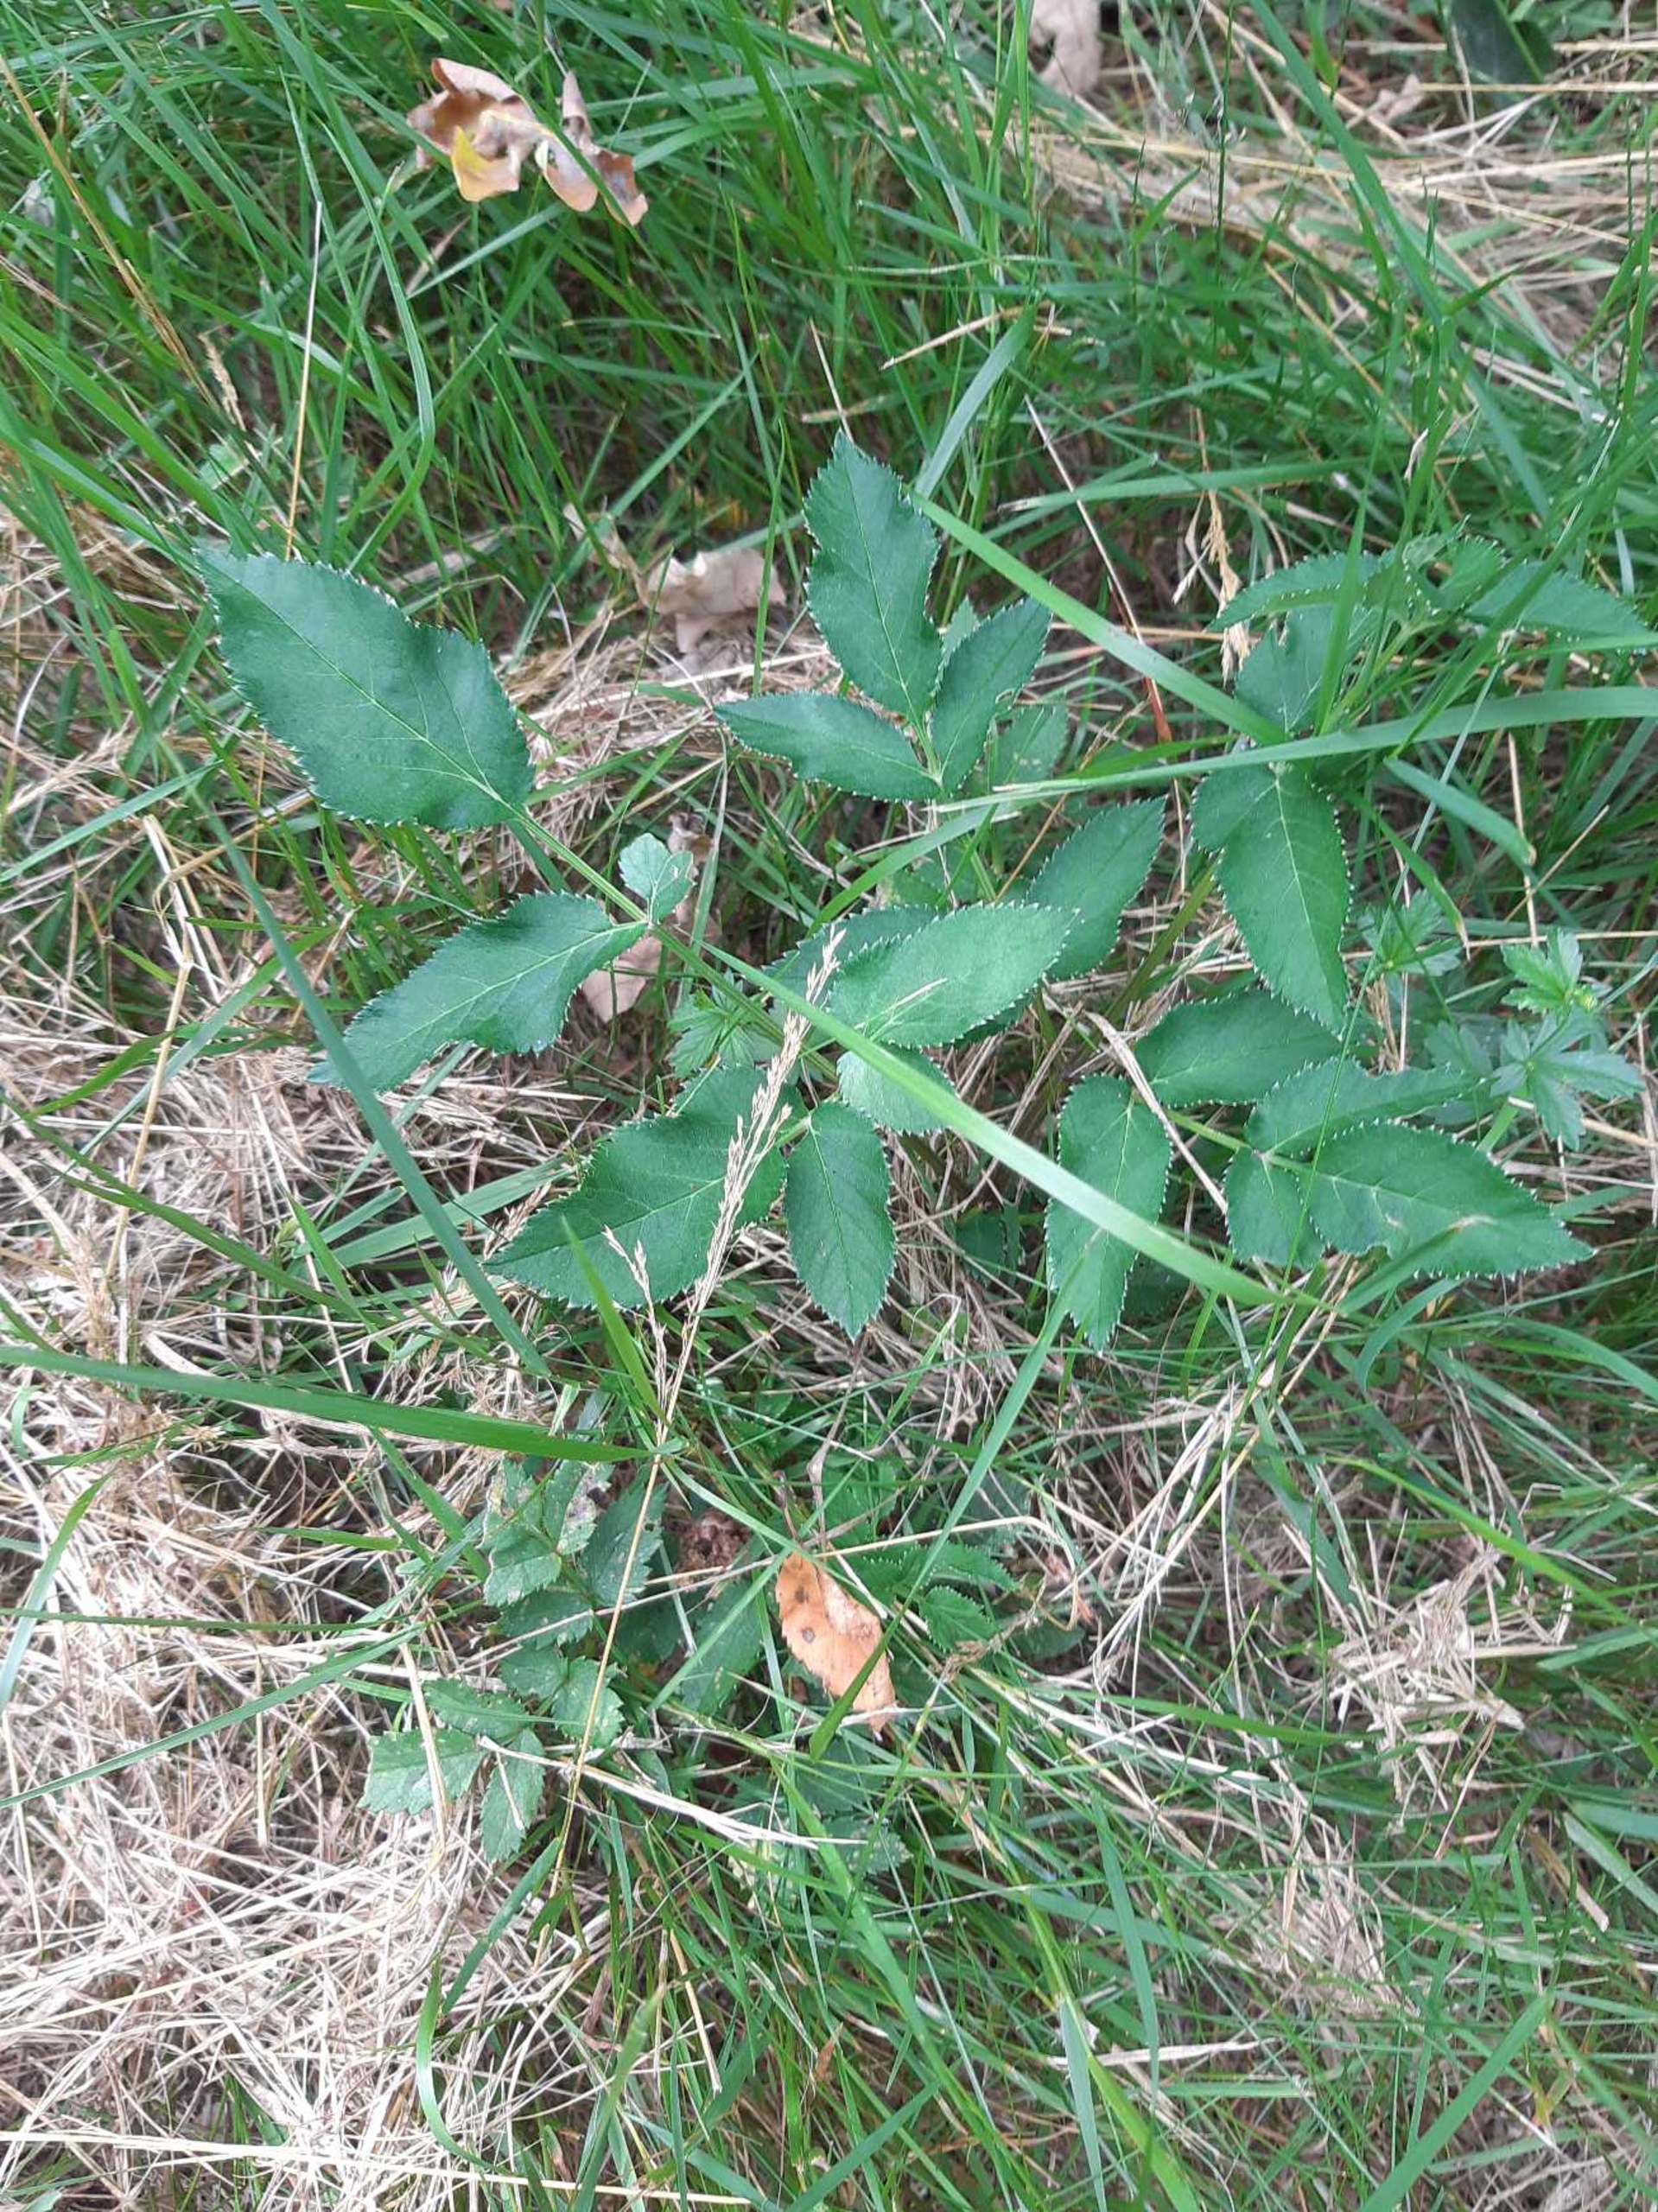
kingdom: Plantae
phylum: Tracheophyta
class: Magnoliopsida
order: Apiales
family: Apiaceae
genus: Angelica
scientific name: Angelica sylvestris
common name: Angelik
